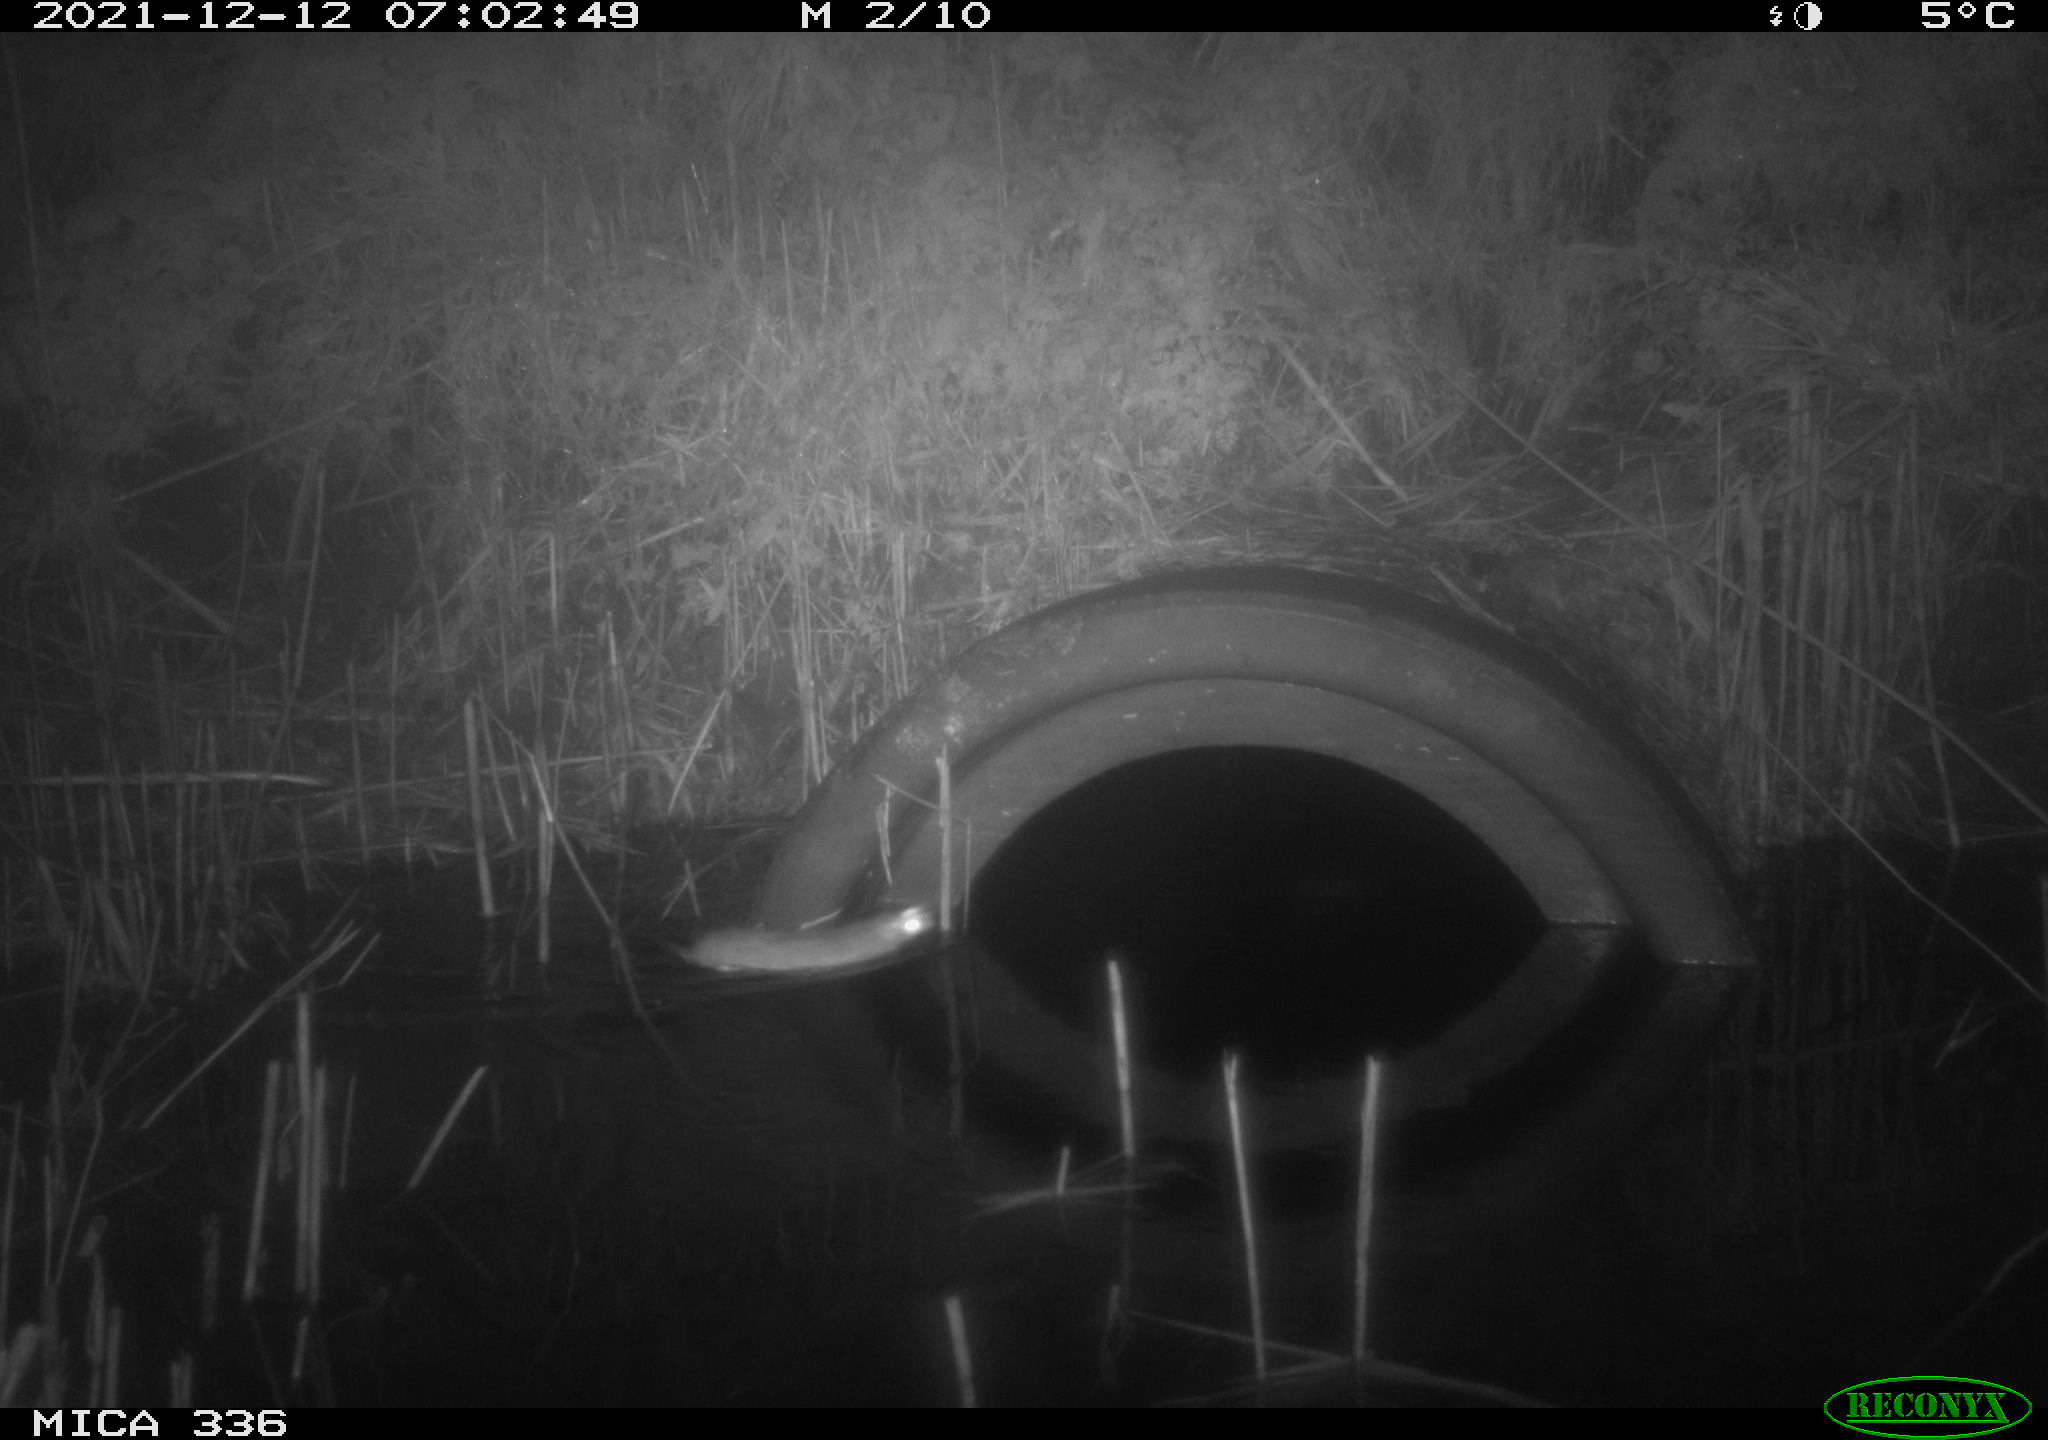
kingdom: Animalia
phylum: Chordata
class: Mammalia
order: Rodentia
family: Muridae
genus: Rattus
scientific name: Rattus norvegicus
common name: Brown rat
